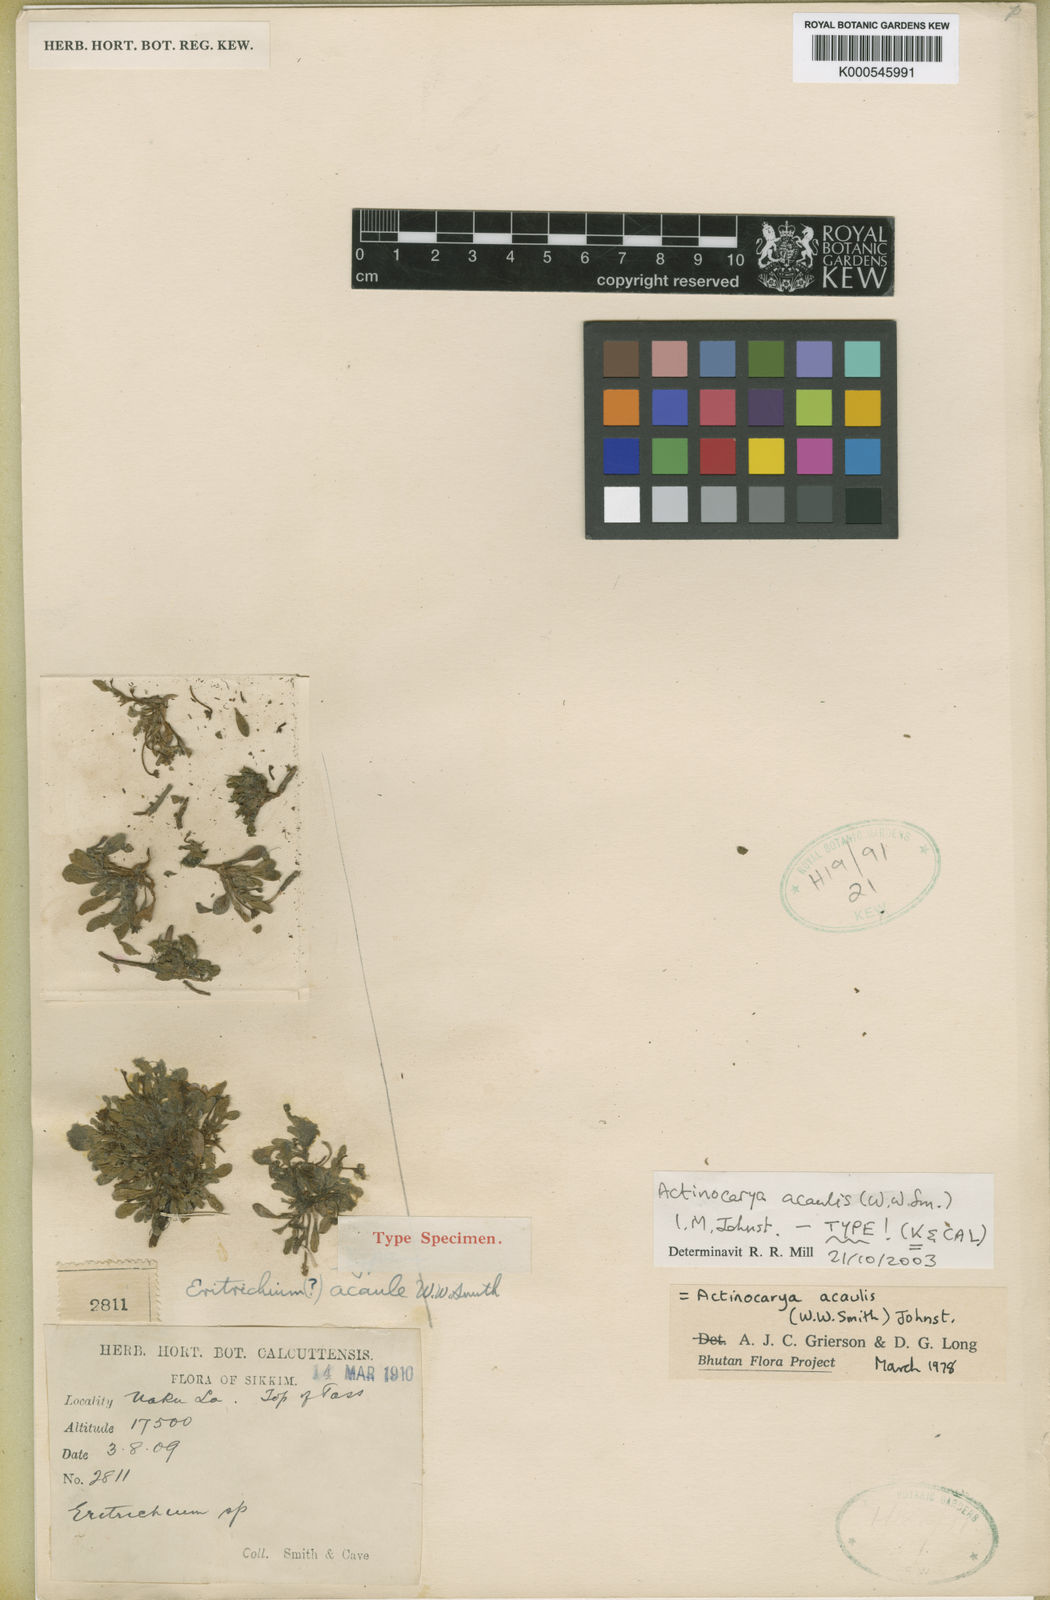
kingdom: Plantae
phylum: Tracheophyta
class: Magnoliopsida
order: Boraginales
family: Boraginaceae
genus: Actinocarya
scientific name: Actinocarya acaulis
